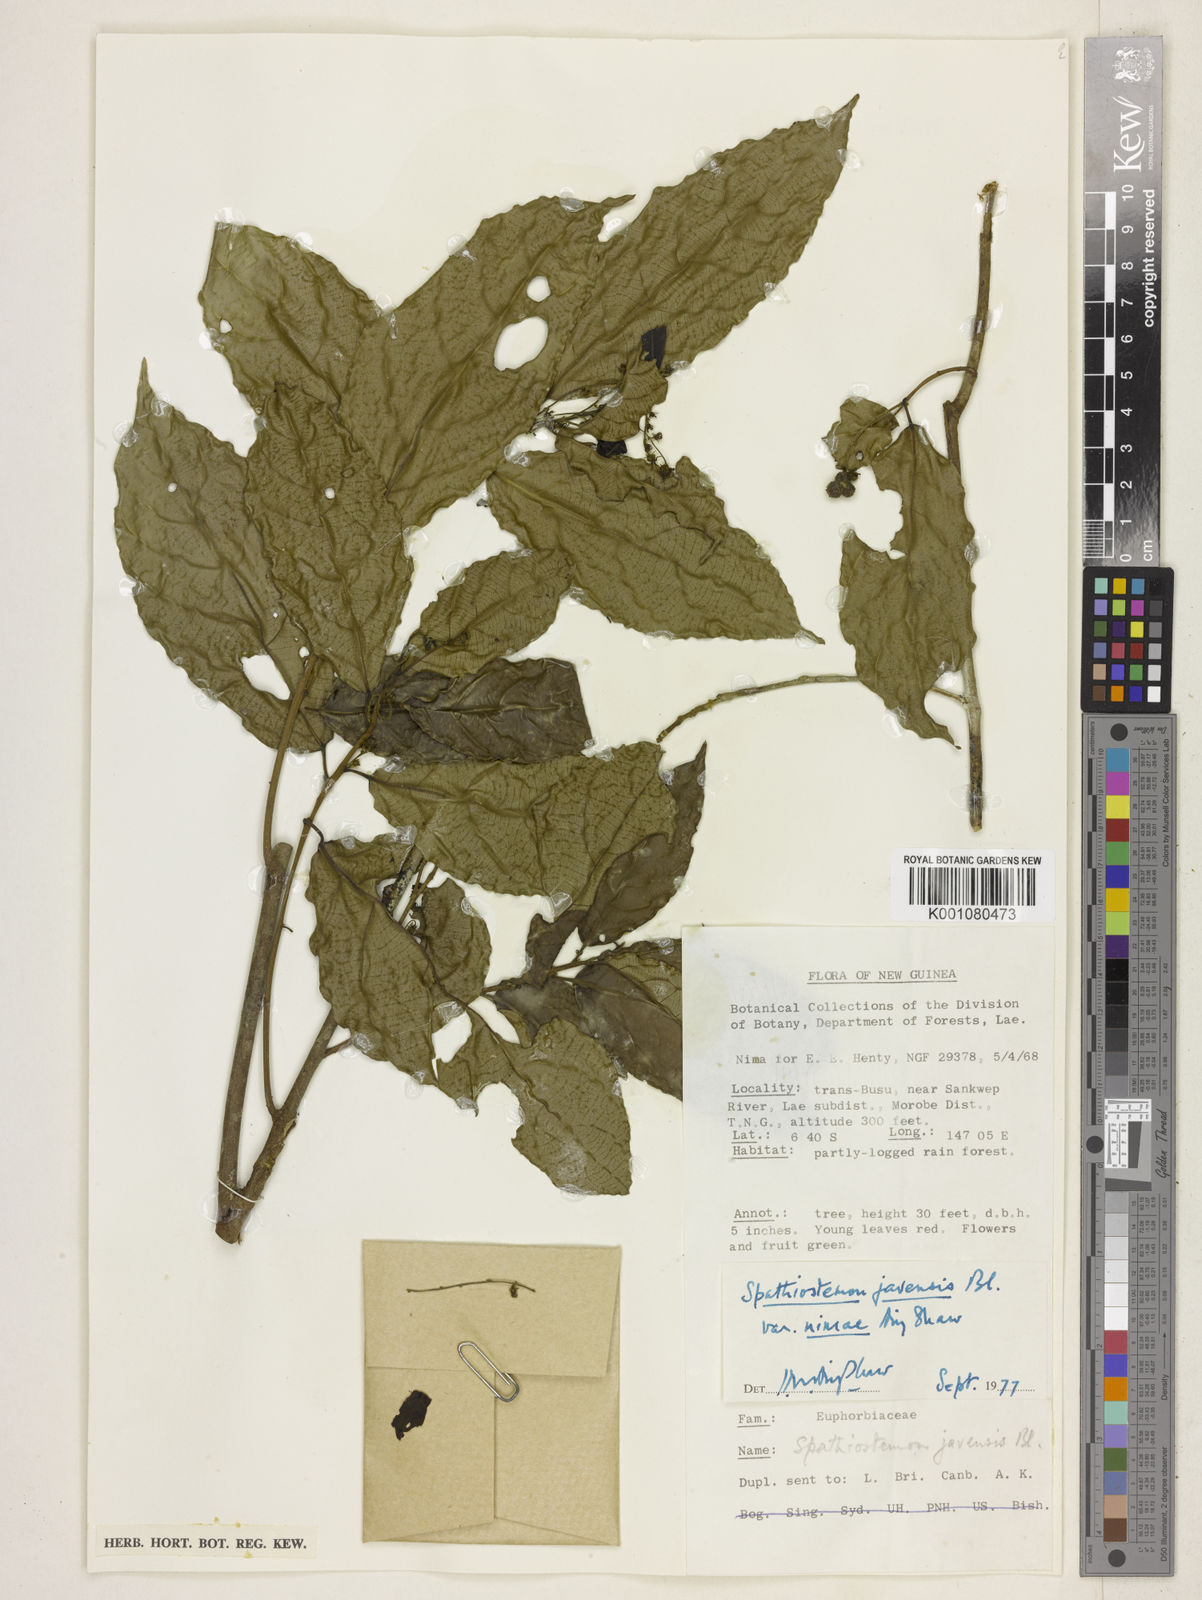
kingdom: Plantae
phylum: Tracheophyta
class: Magnoliopsida
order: Malpighiales
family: Euphorbiaceae
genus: Spathiostemon
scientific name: Spathiostemon javensis
